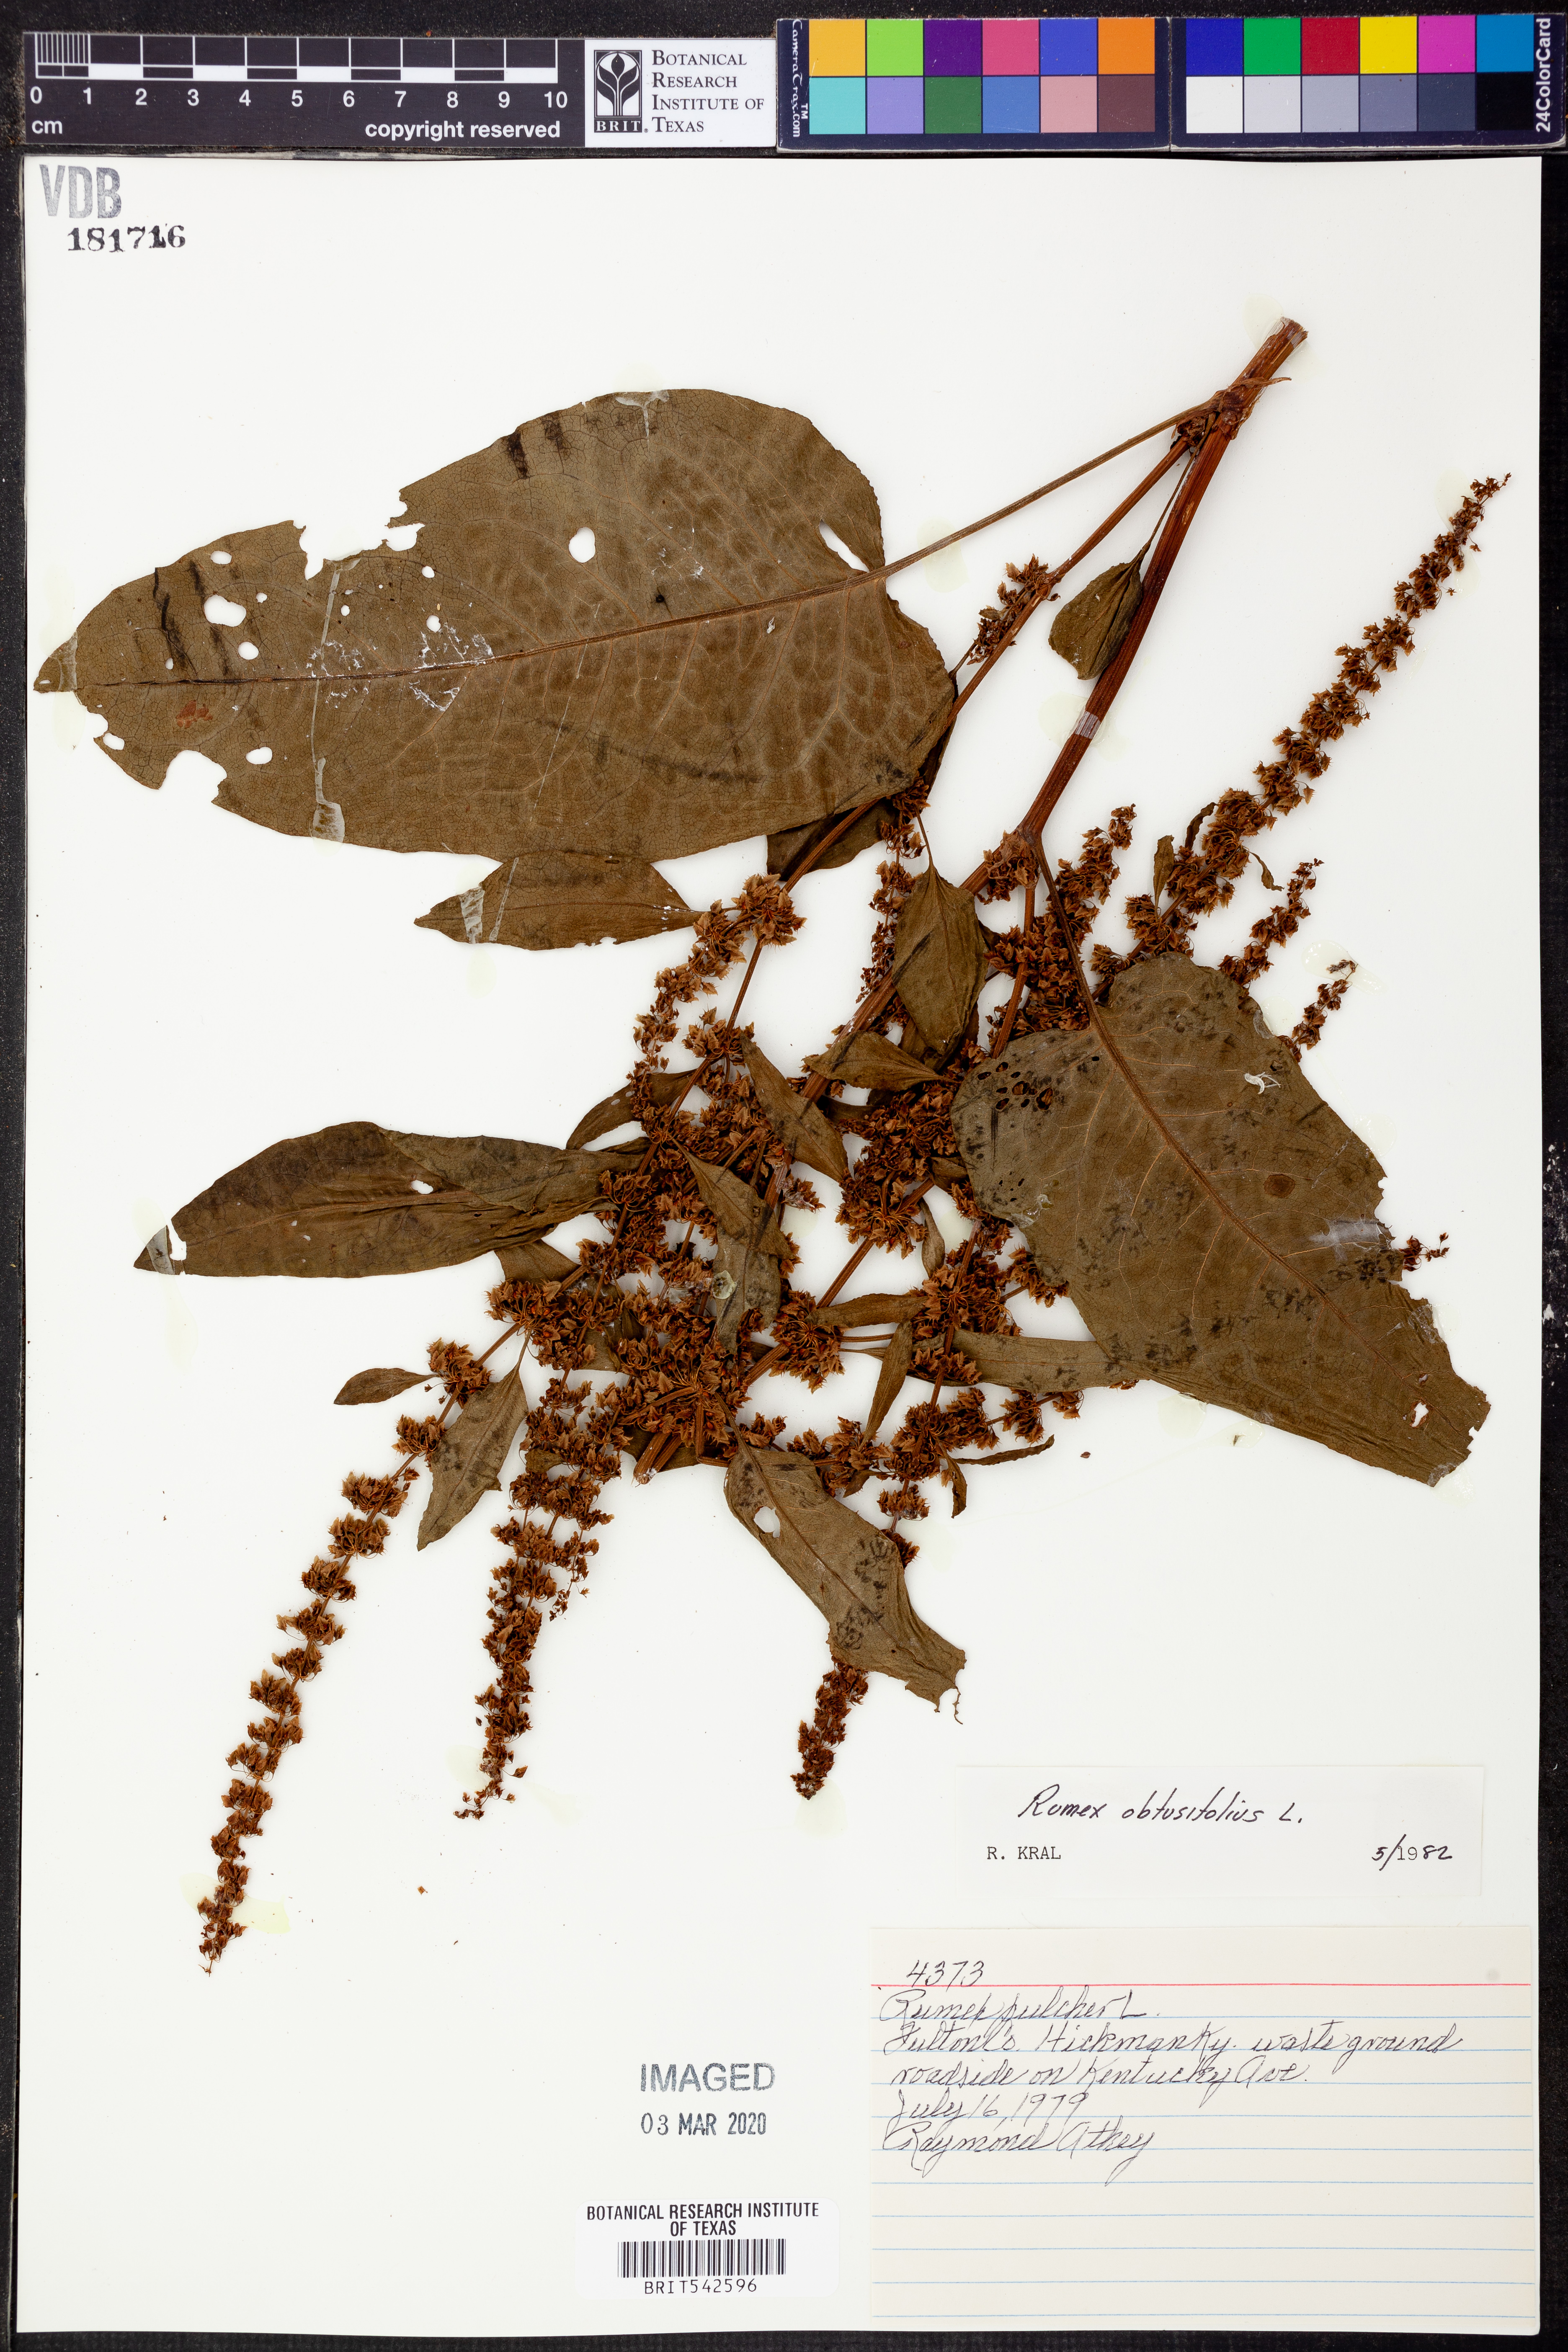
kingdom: Plantae
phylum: Tracheophyta
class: Magnoliopsida
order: Caryophyllales
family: Polygonaceae
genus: Rumex
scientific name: Rumex obtusifolius
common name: Bitter dock
